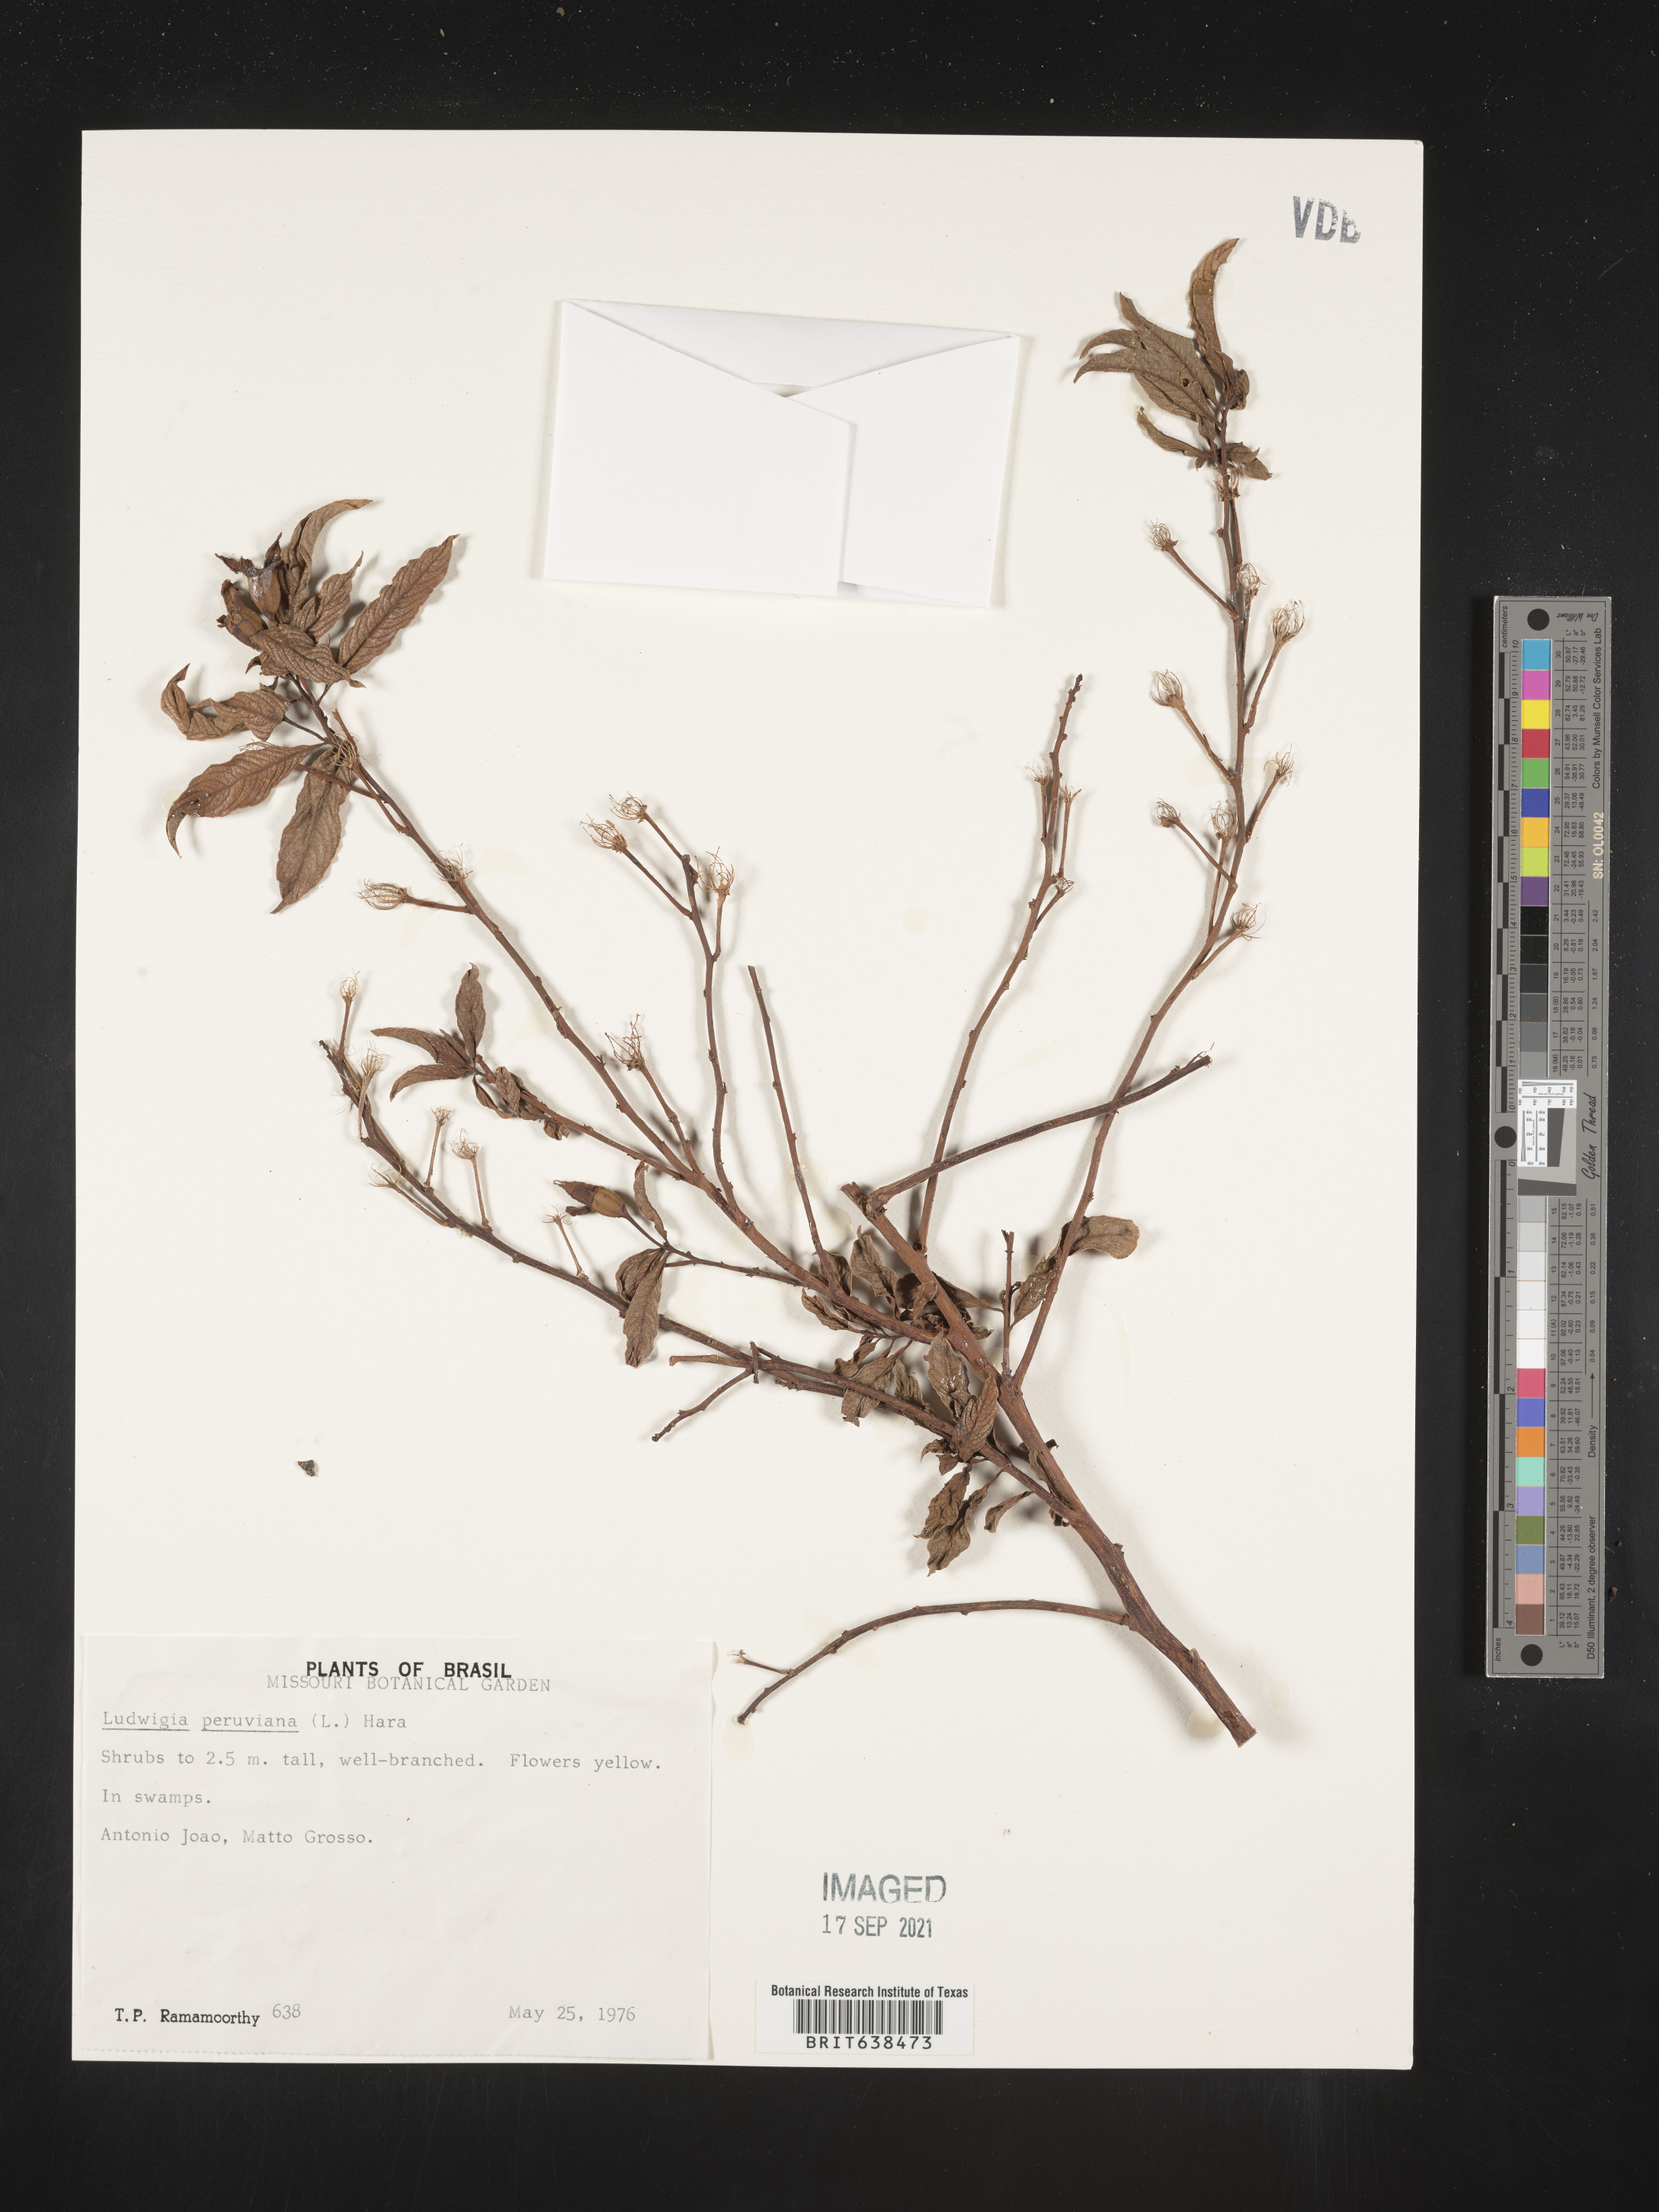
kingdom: Plantae
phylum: Tracheophyta
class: Magnoliopsida
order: Myrtales
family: Onagraceae
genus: Ludwigia
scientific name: Ludwigia
